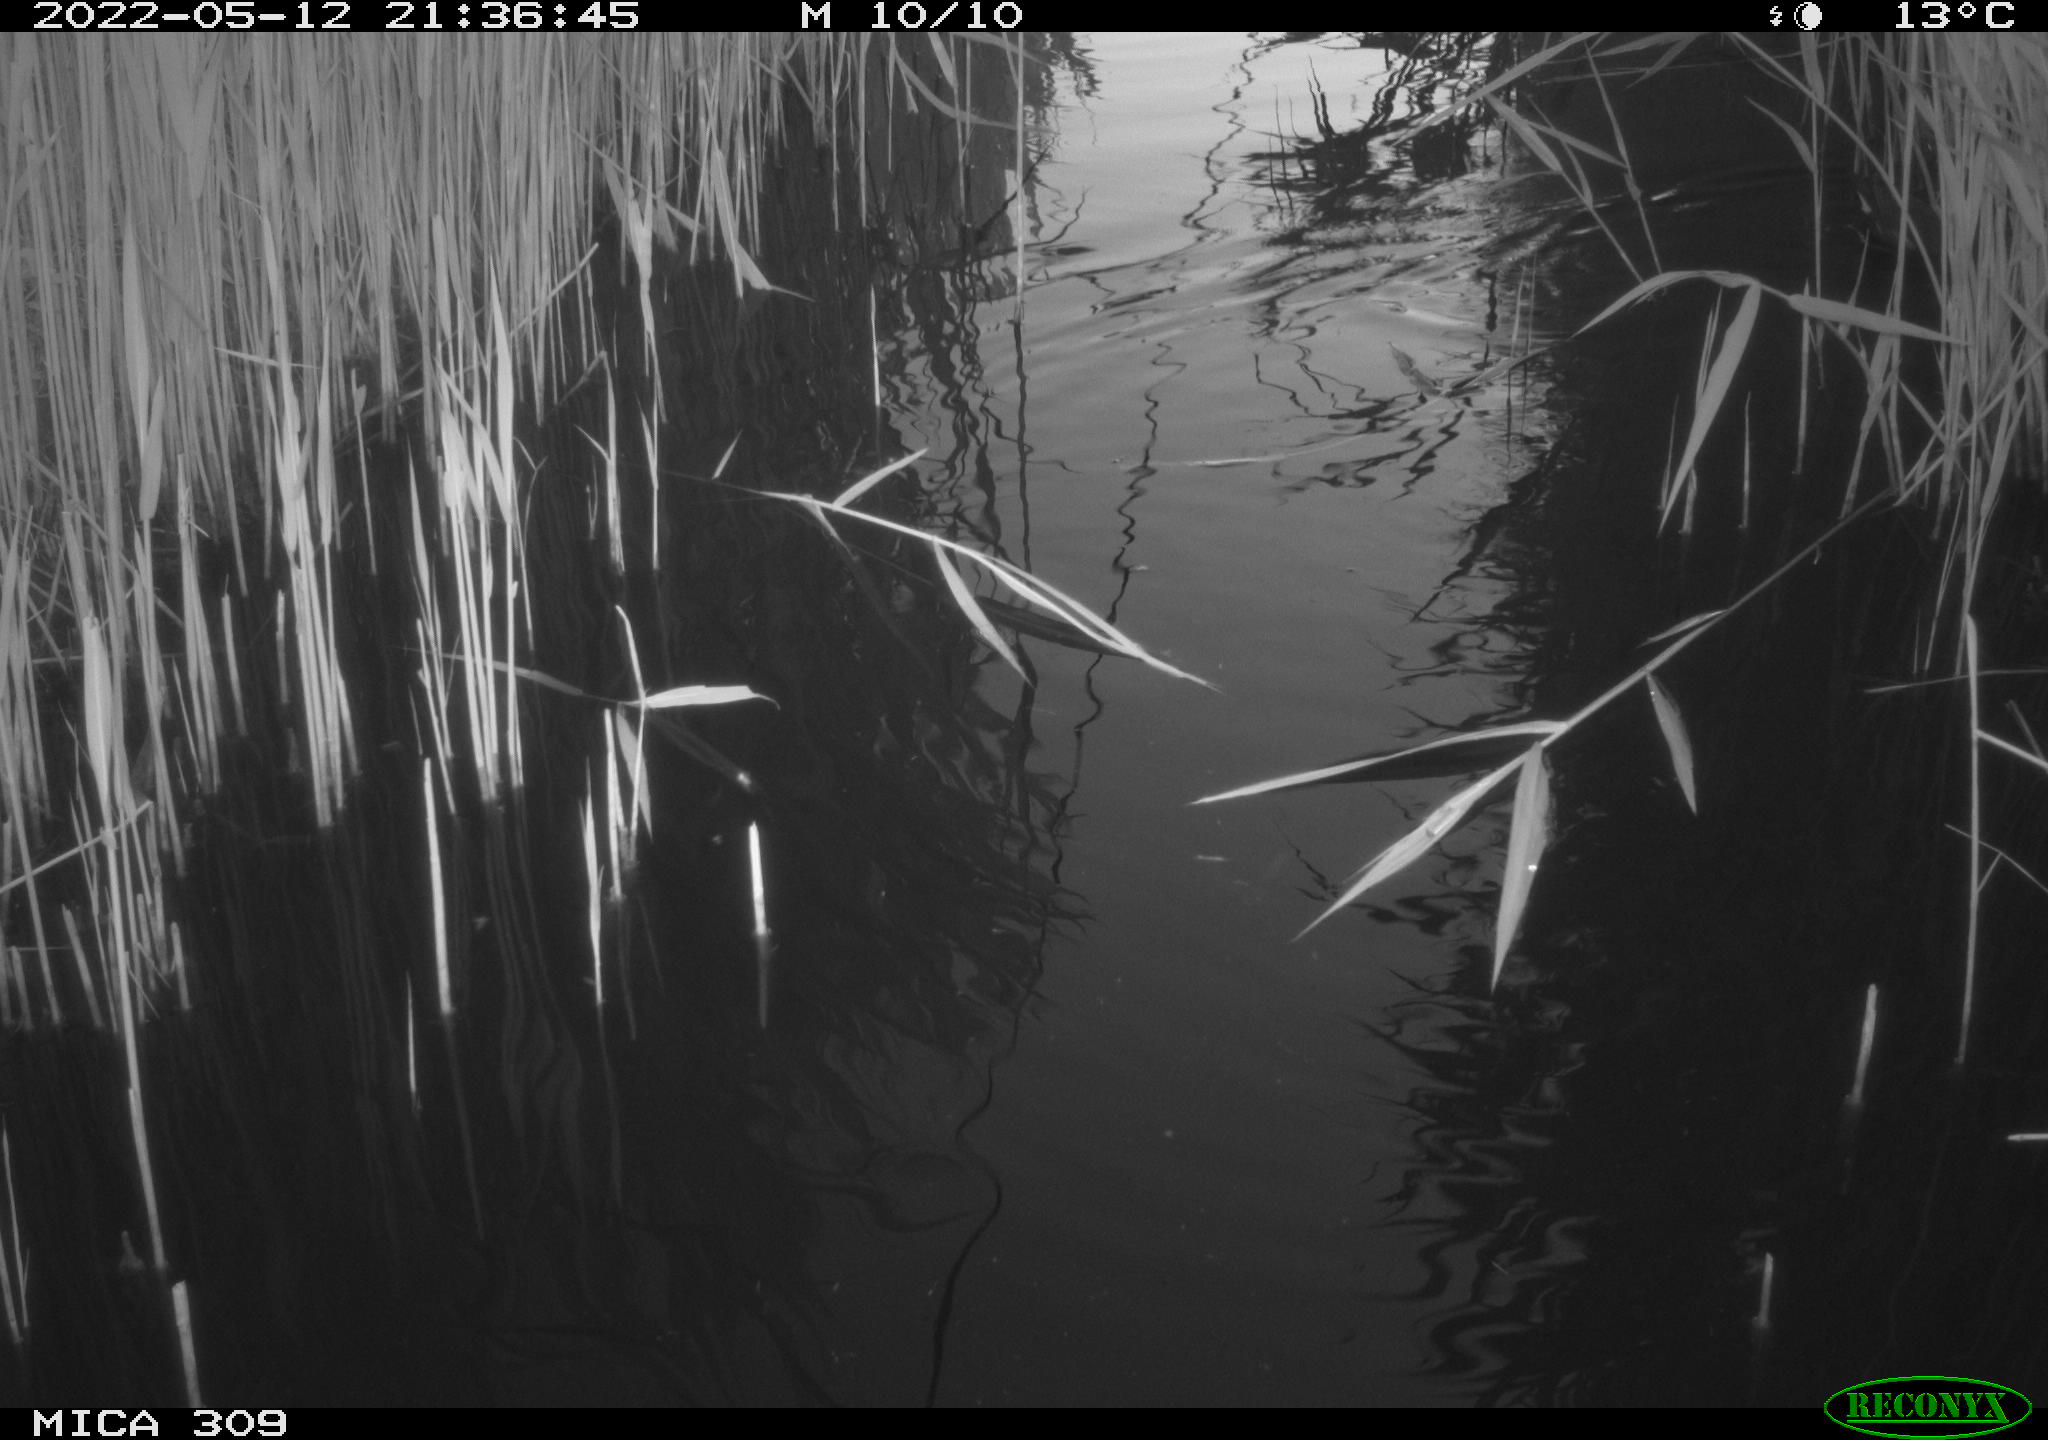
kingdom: Animalia
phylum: Chordata
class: Aves
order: Gruiformes
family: Rallidae
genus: Gallinula
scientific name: Gallinula chloropus
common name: Common moorhen
